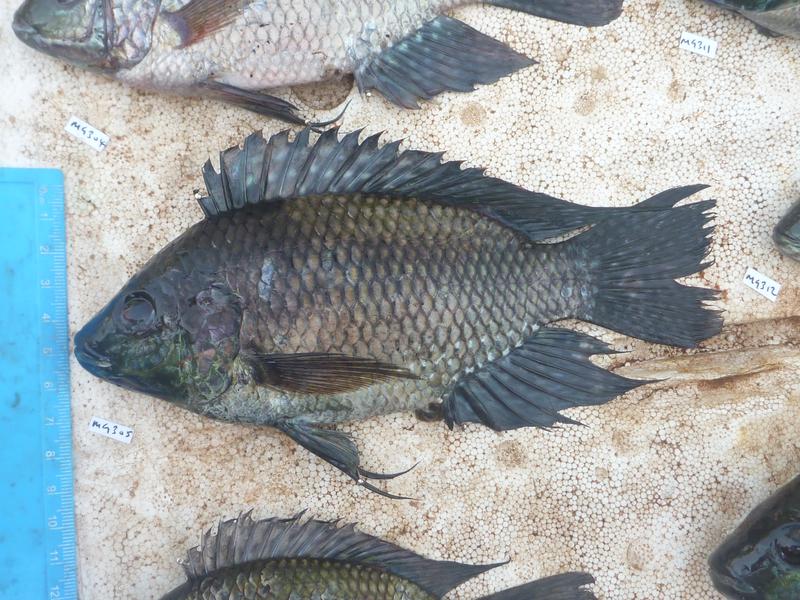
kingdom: Animalia
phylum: Chordata
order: Perciformes
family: Cichlidae
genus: Oreochromis
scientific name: Oreochromis leucostictus
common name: Blue spotted tilapia
